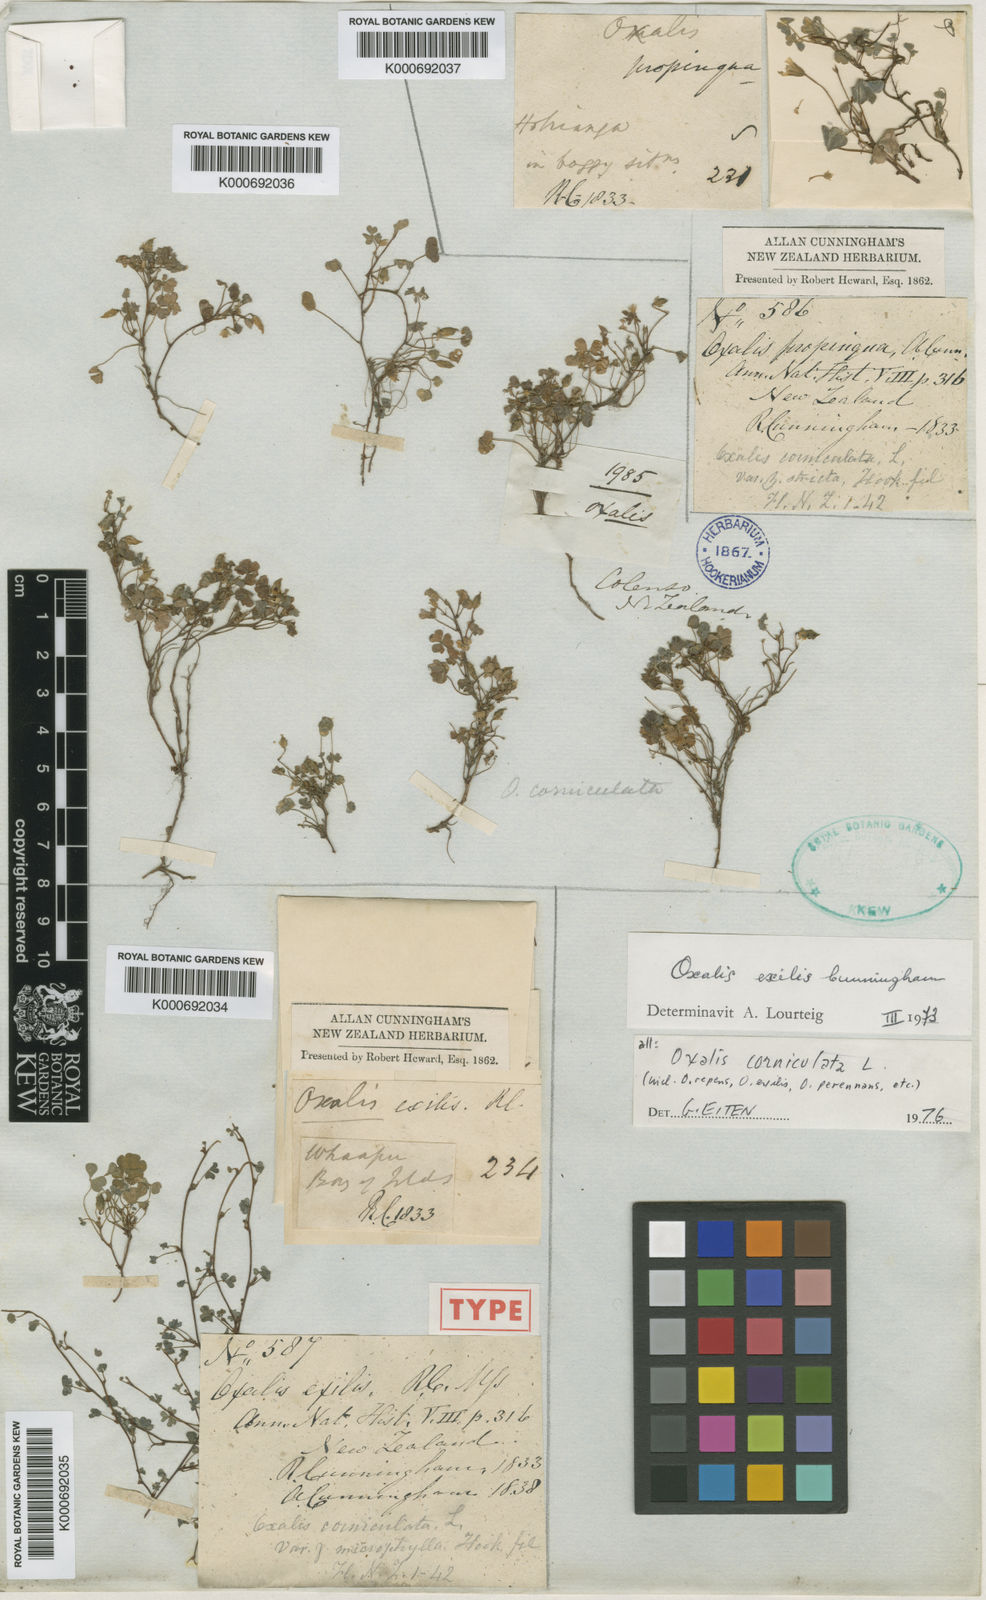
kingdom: Plantae
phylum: Tracheophyta
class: Magnoliopsida
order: Oxalidales
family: Oxalidaceae
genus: Oxalis
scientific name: Oxalis corniculata
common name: Procumbent yellow-sorrel
